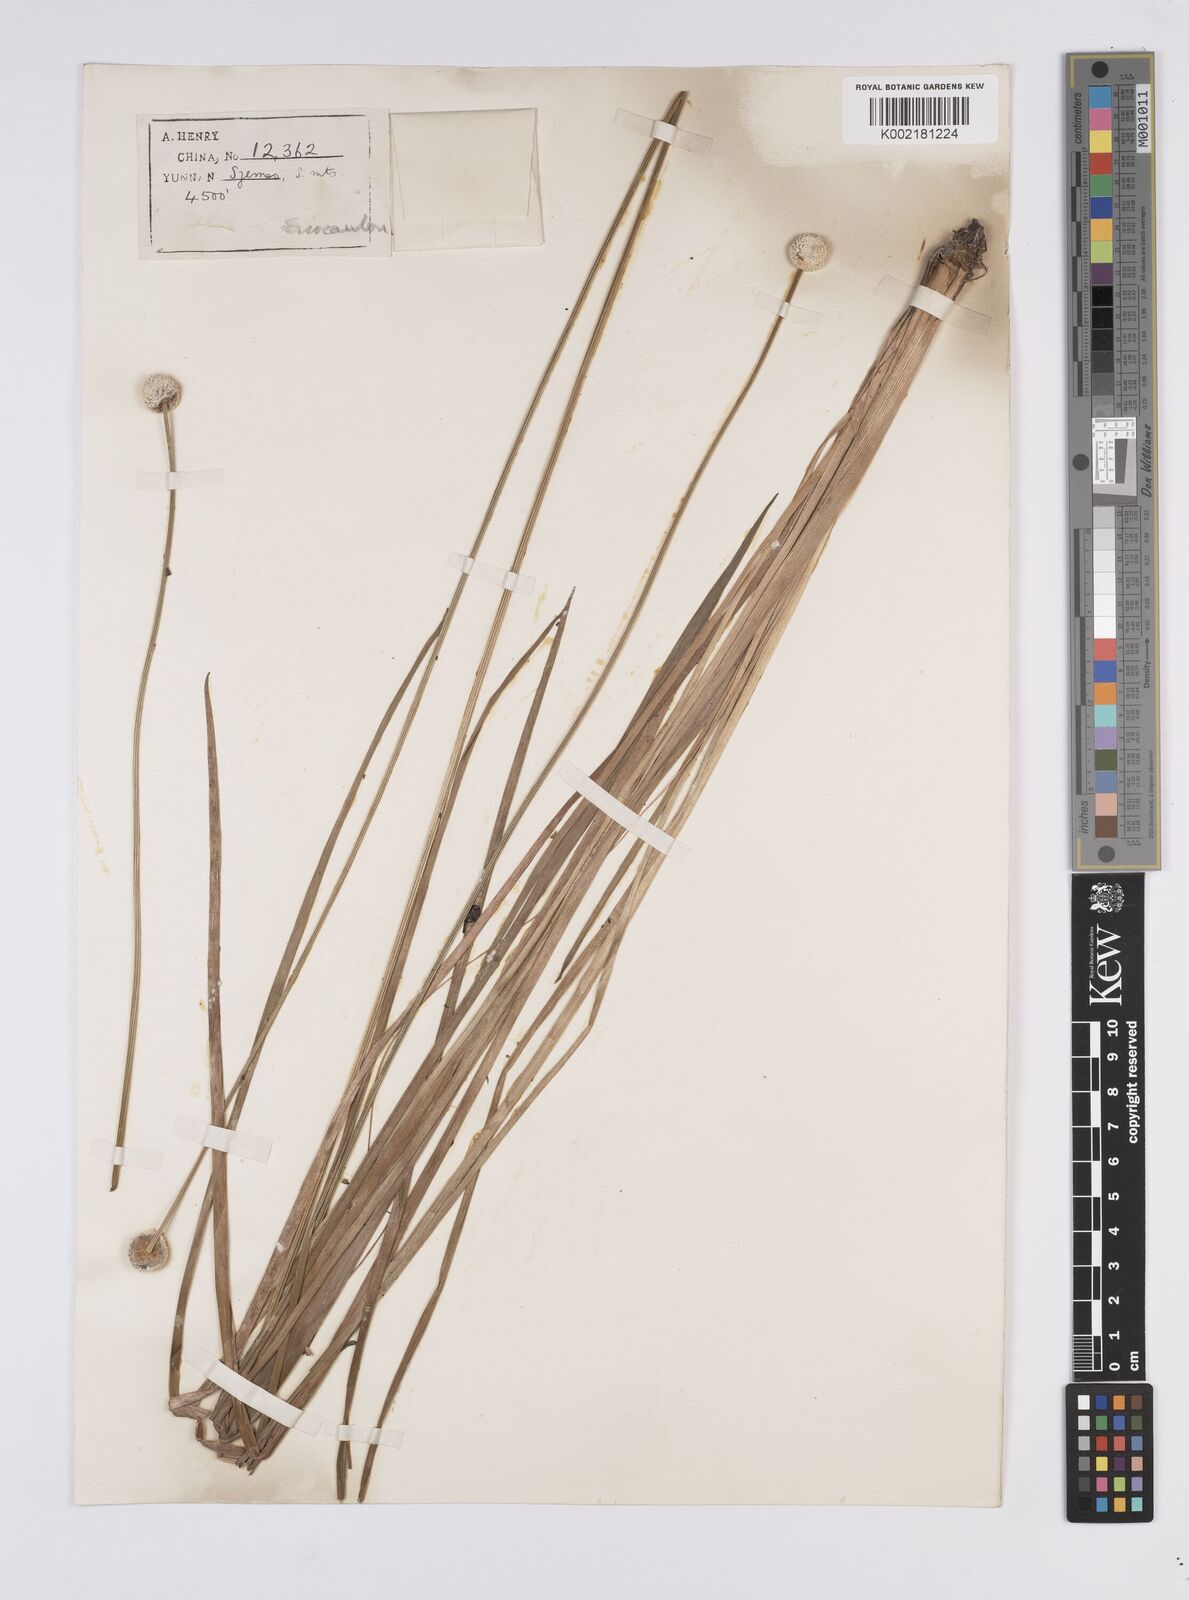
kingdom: Plantae
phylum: Tracheophyta
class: Liliopsida
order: Poales
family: Eriocaulaceae
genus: Eriocaulon
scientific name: Eriocaulon
